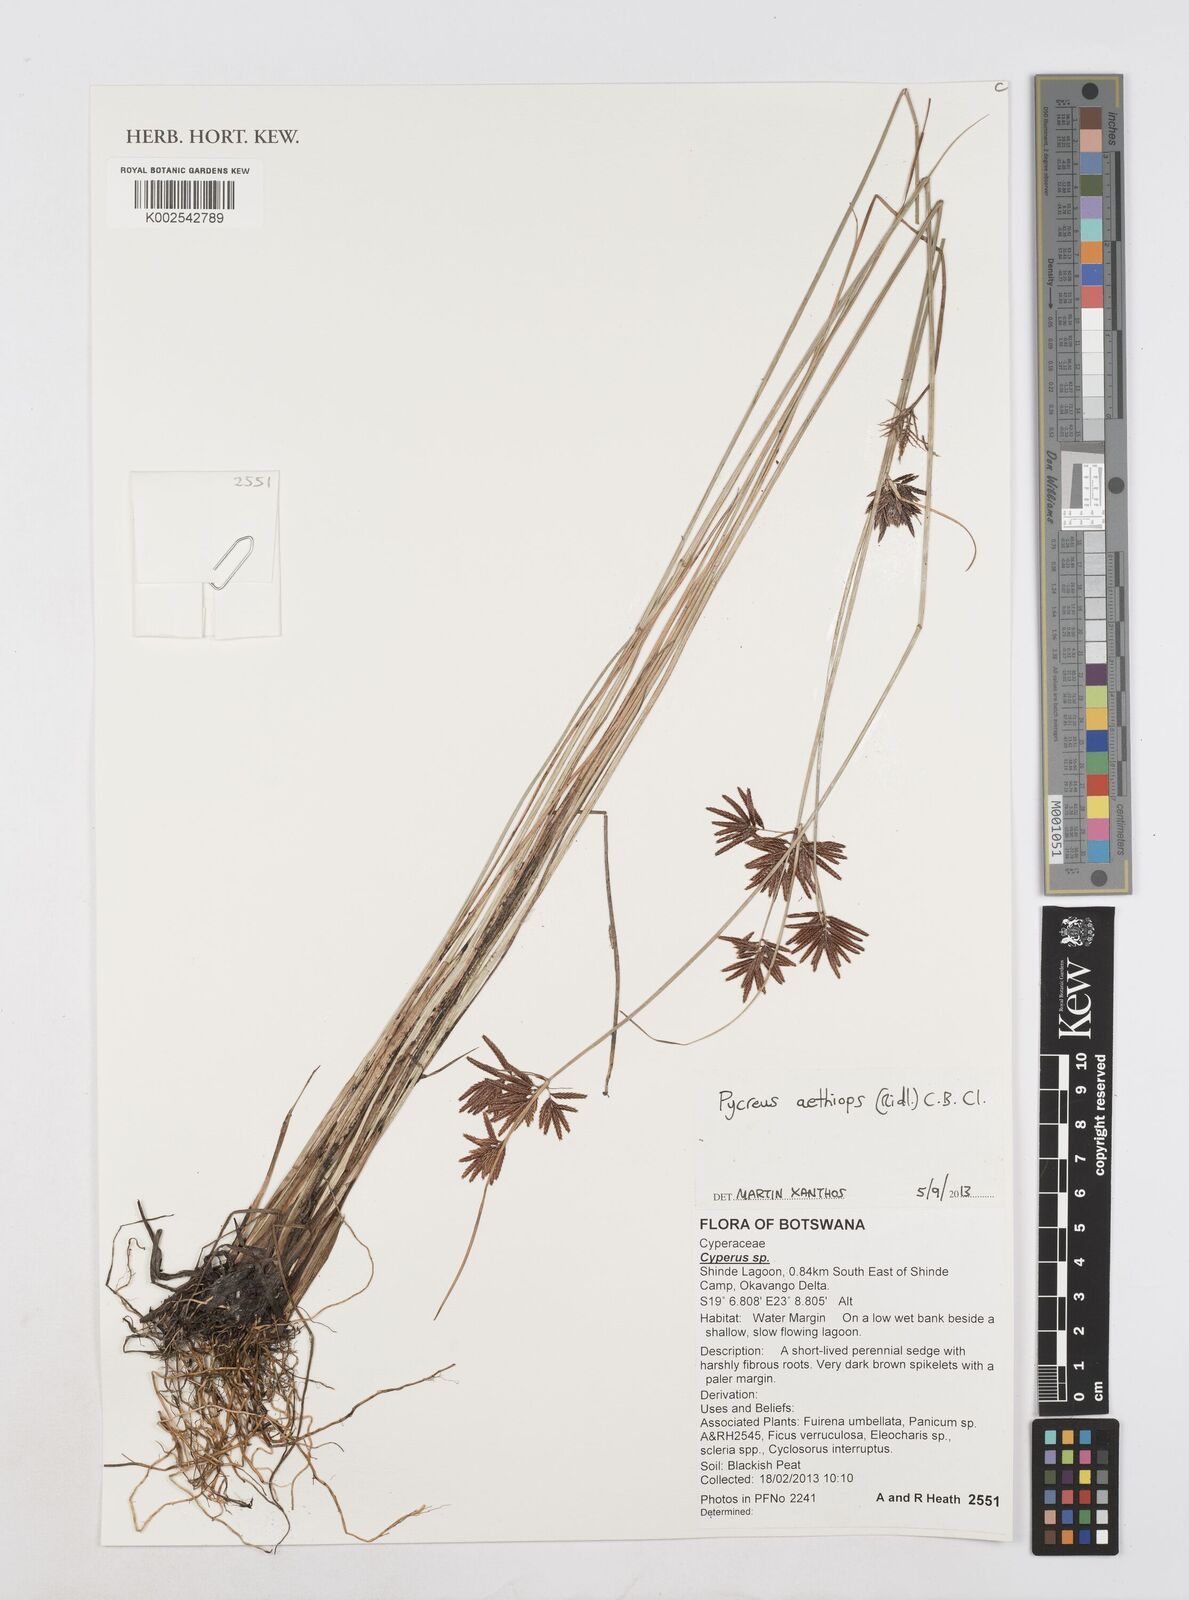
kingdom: Plantae
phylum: Tracheophyta
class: Liliopsida
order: Poales
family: Cyperaceae
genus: Cyperus
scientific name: Cyperus aethiops
